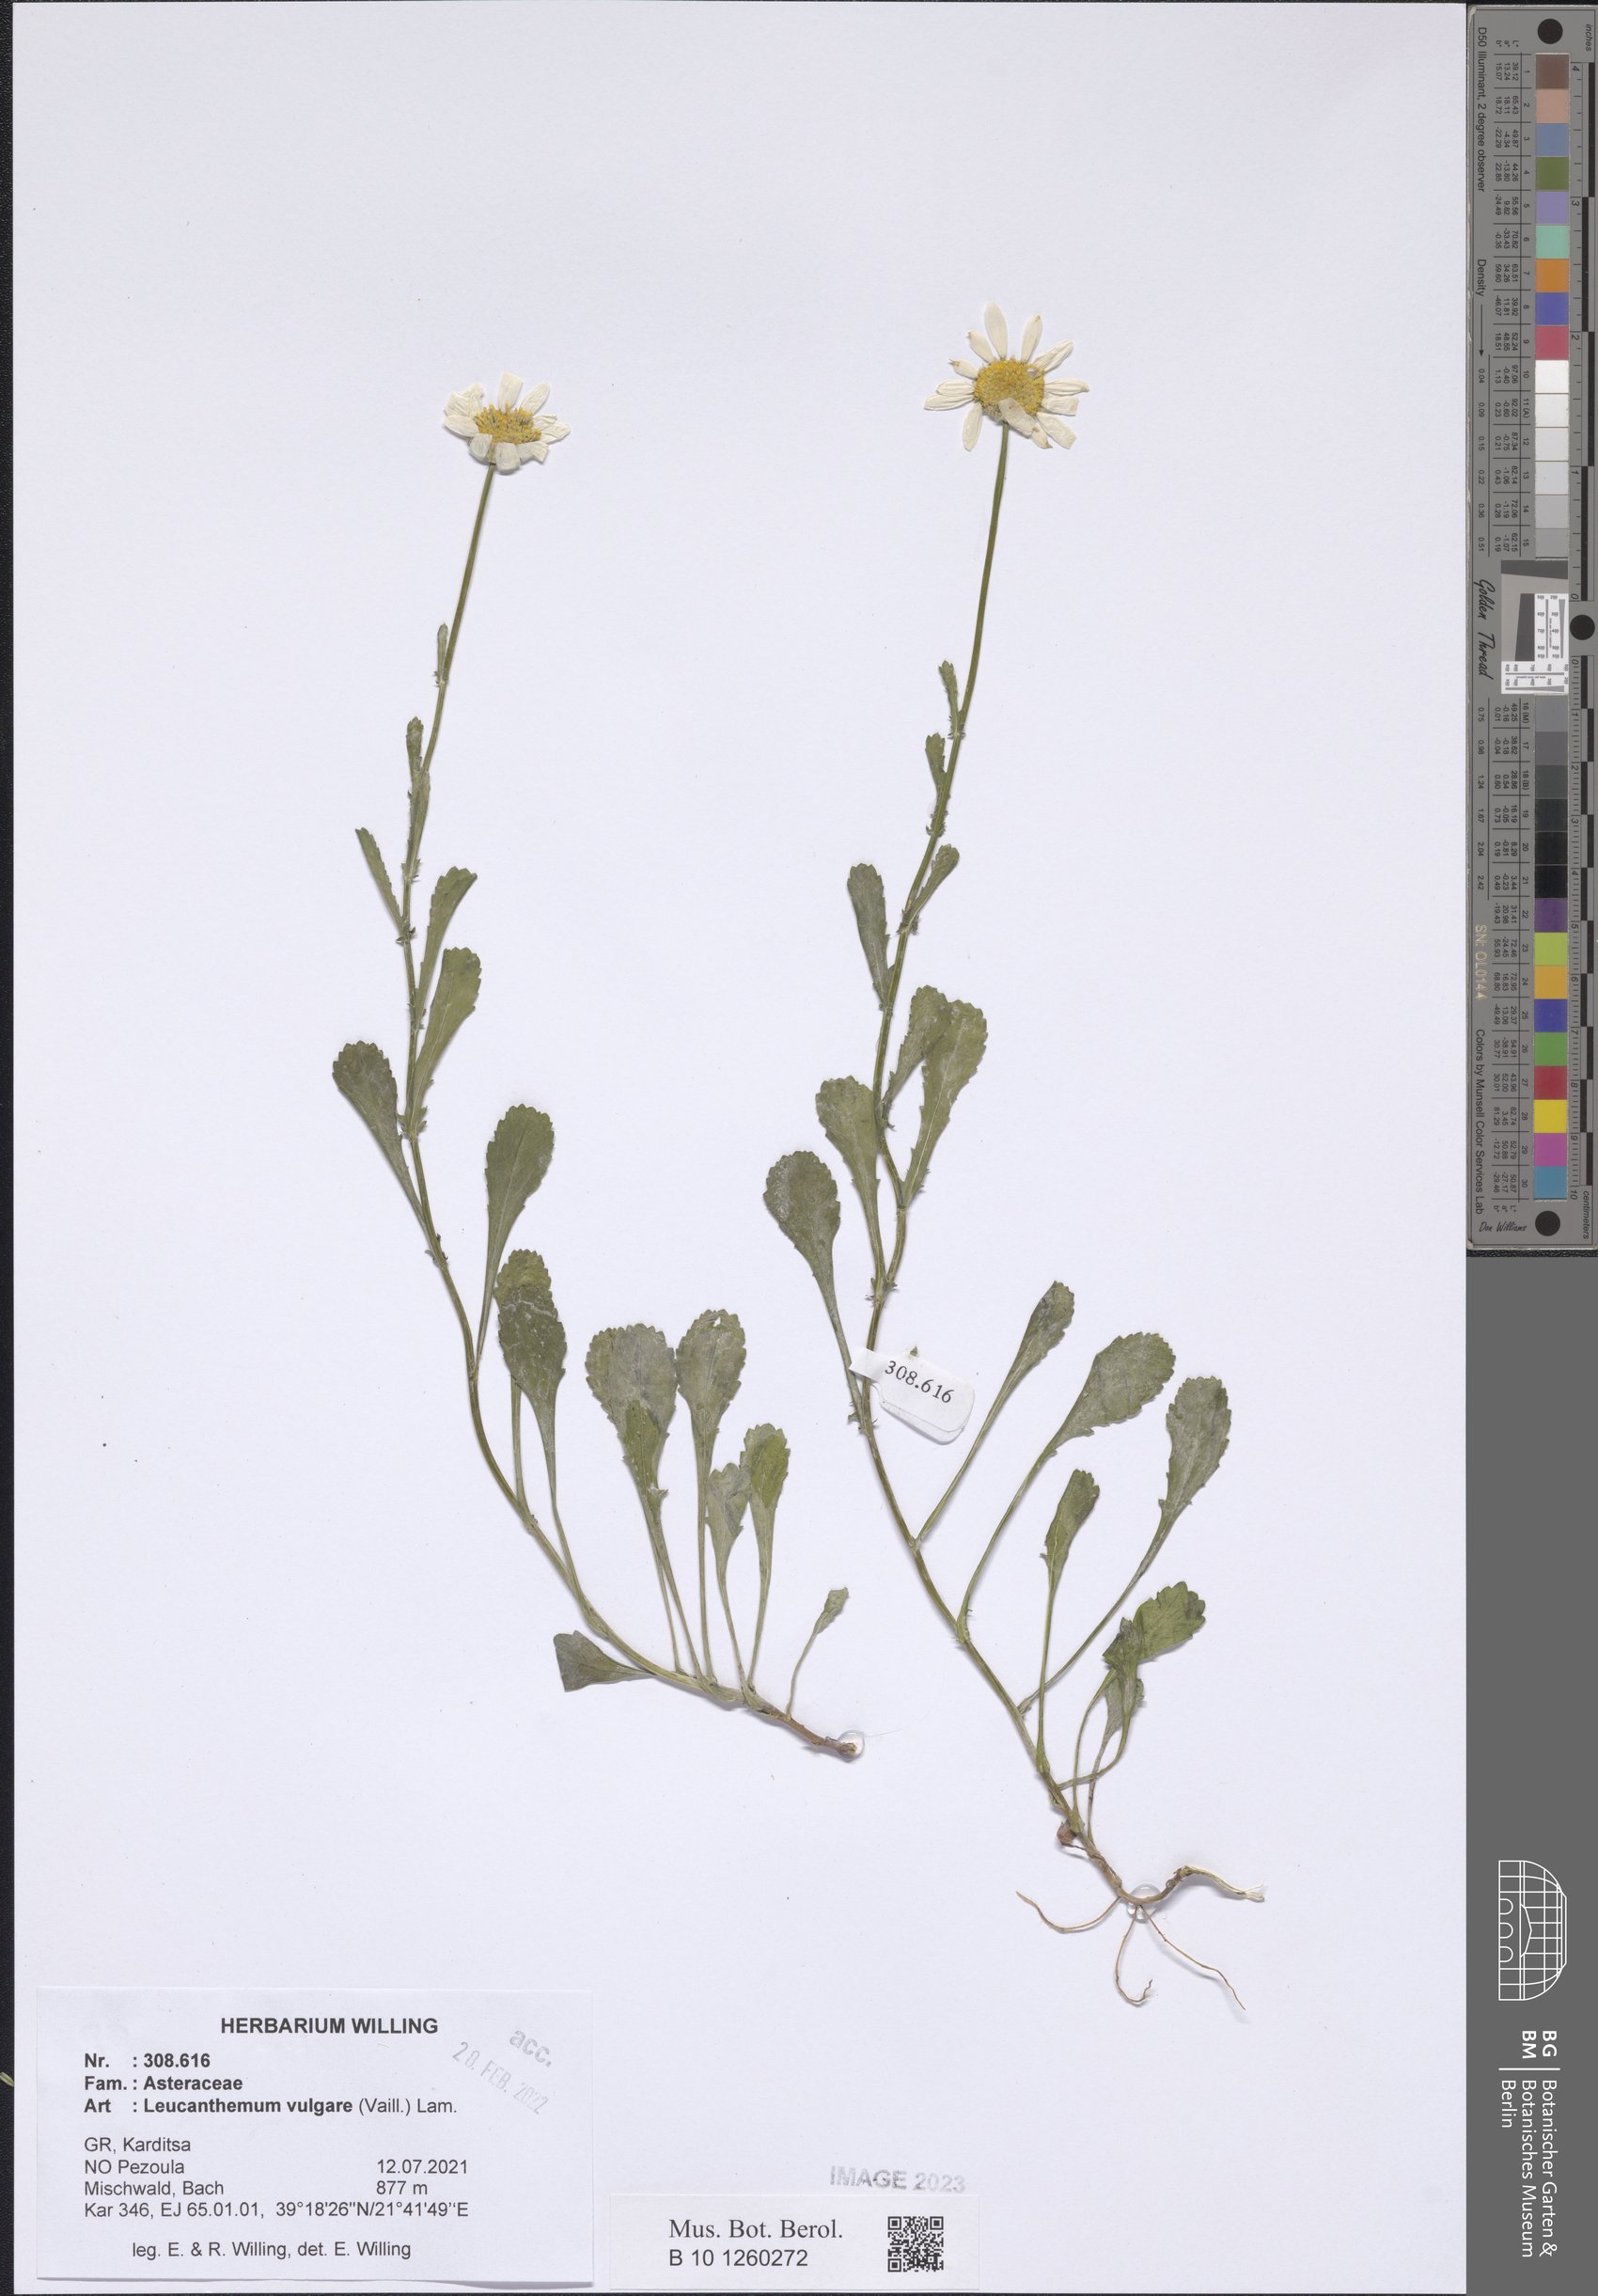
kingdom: Plantae
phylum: Tracheophyta
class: Magnoliopsida
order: Asterales
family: Asteraceae
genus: Leucanthemum
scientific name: Leucanthemum vulgare
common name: Oxeye daisy
